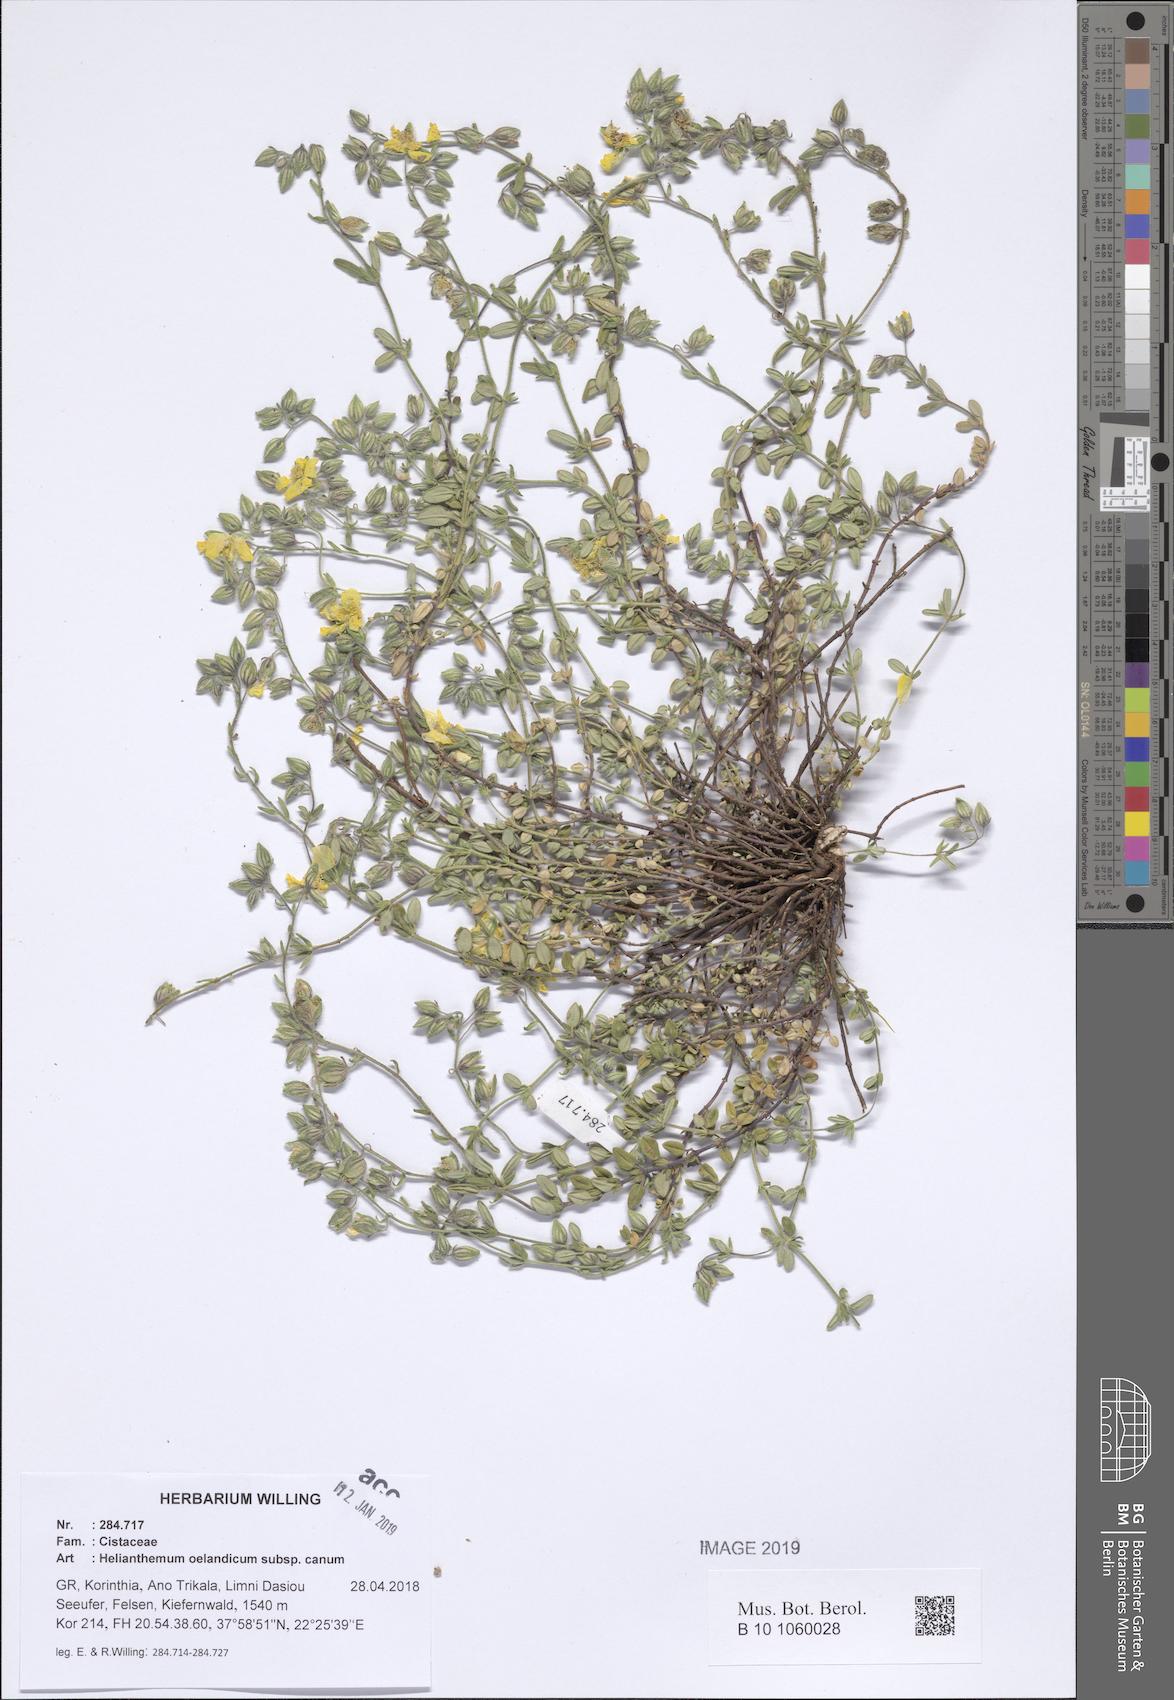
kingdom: Plantae
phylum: Tracheophyta
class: Magnoliopsida
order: Malvales
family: Cistaceae
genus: Helianthemum
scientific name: Helianthemum canum
